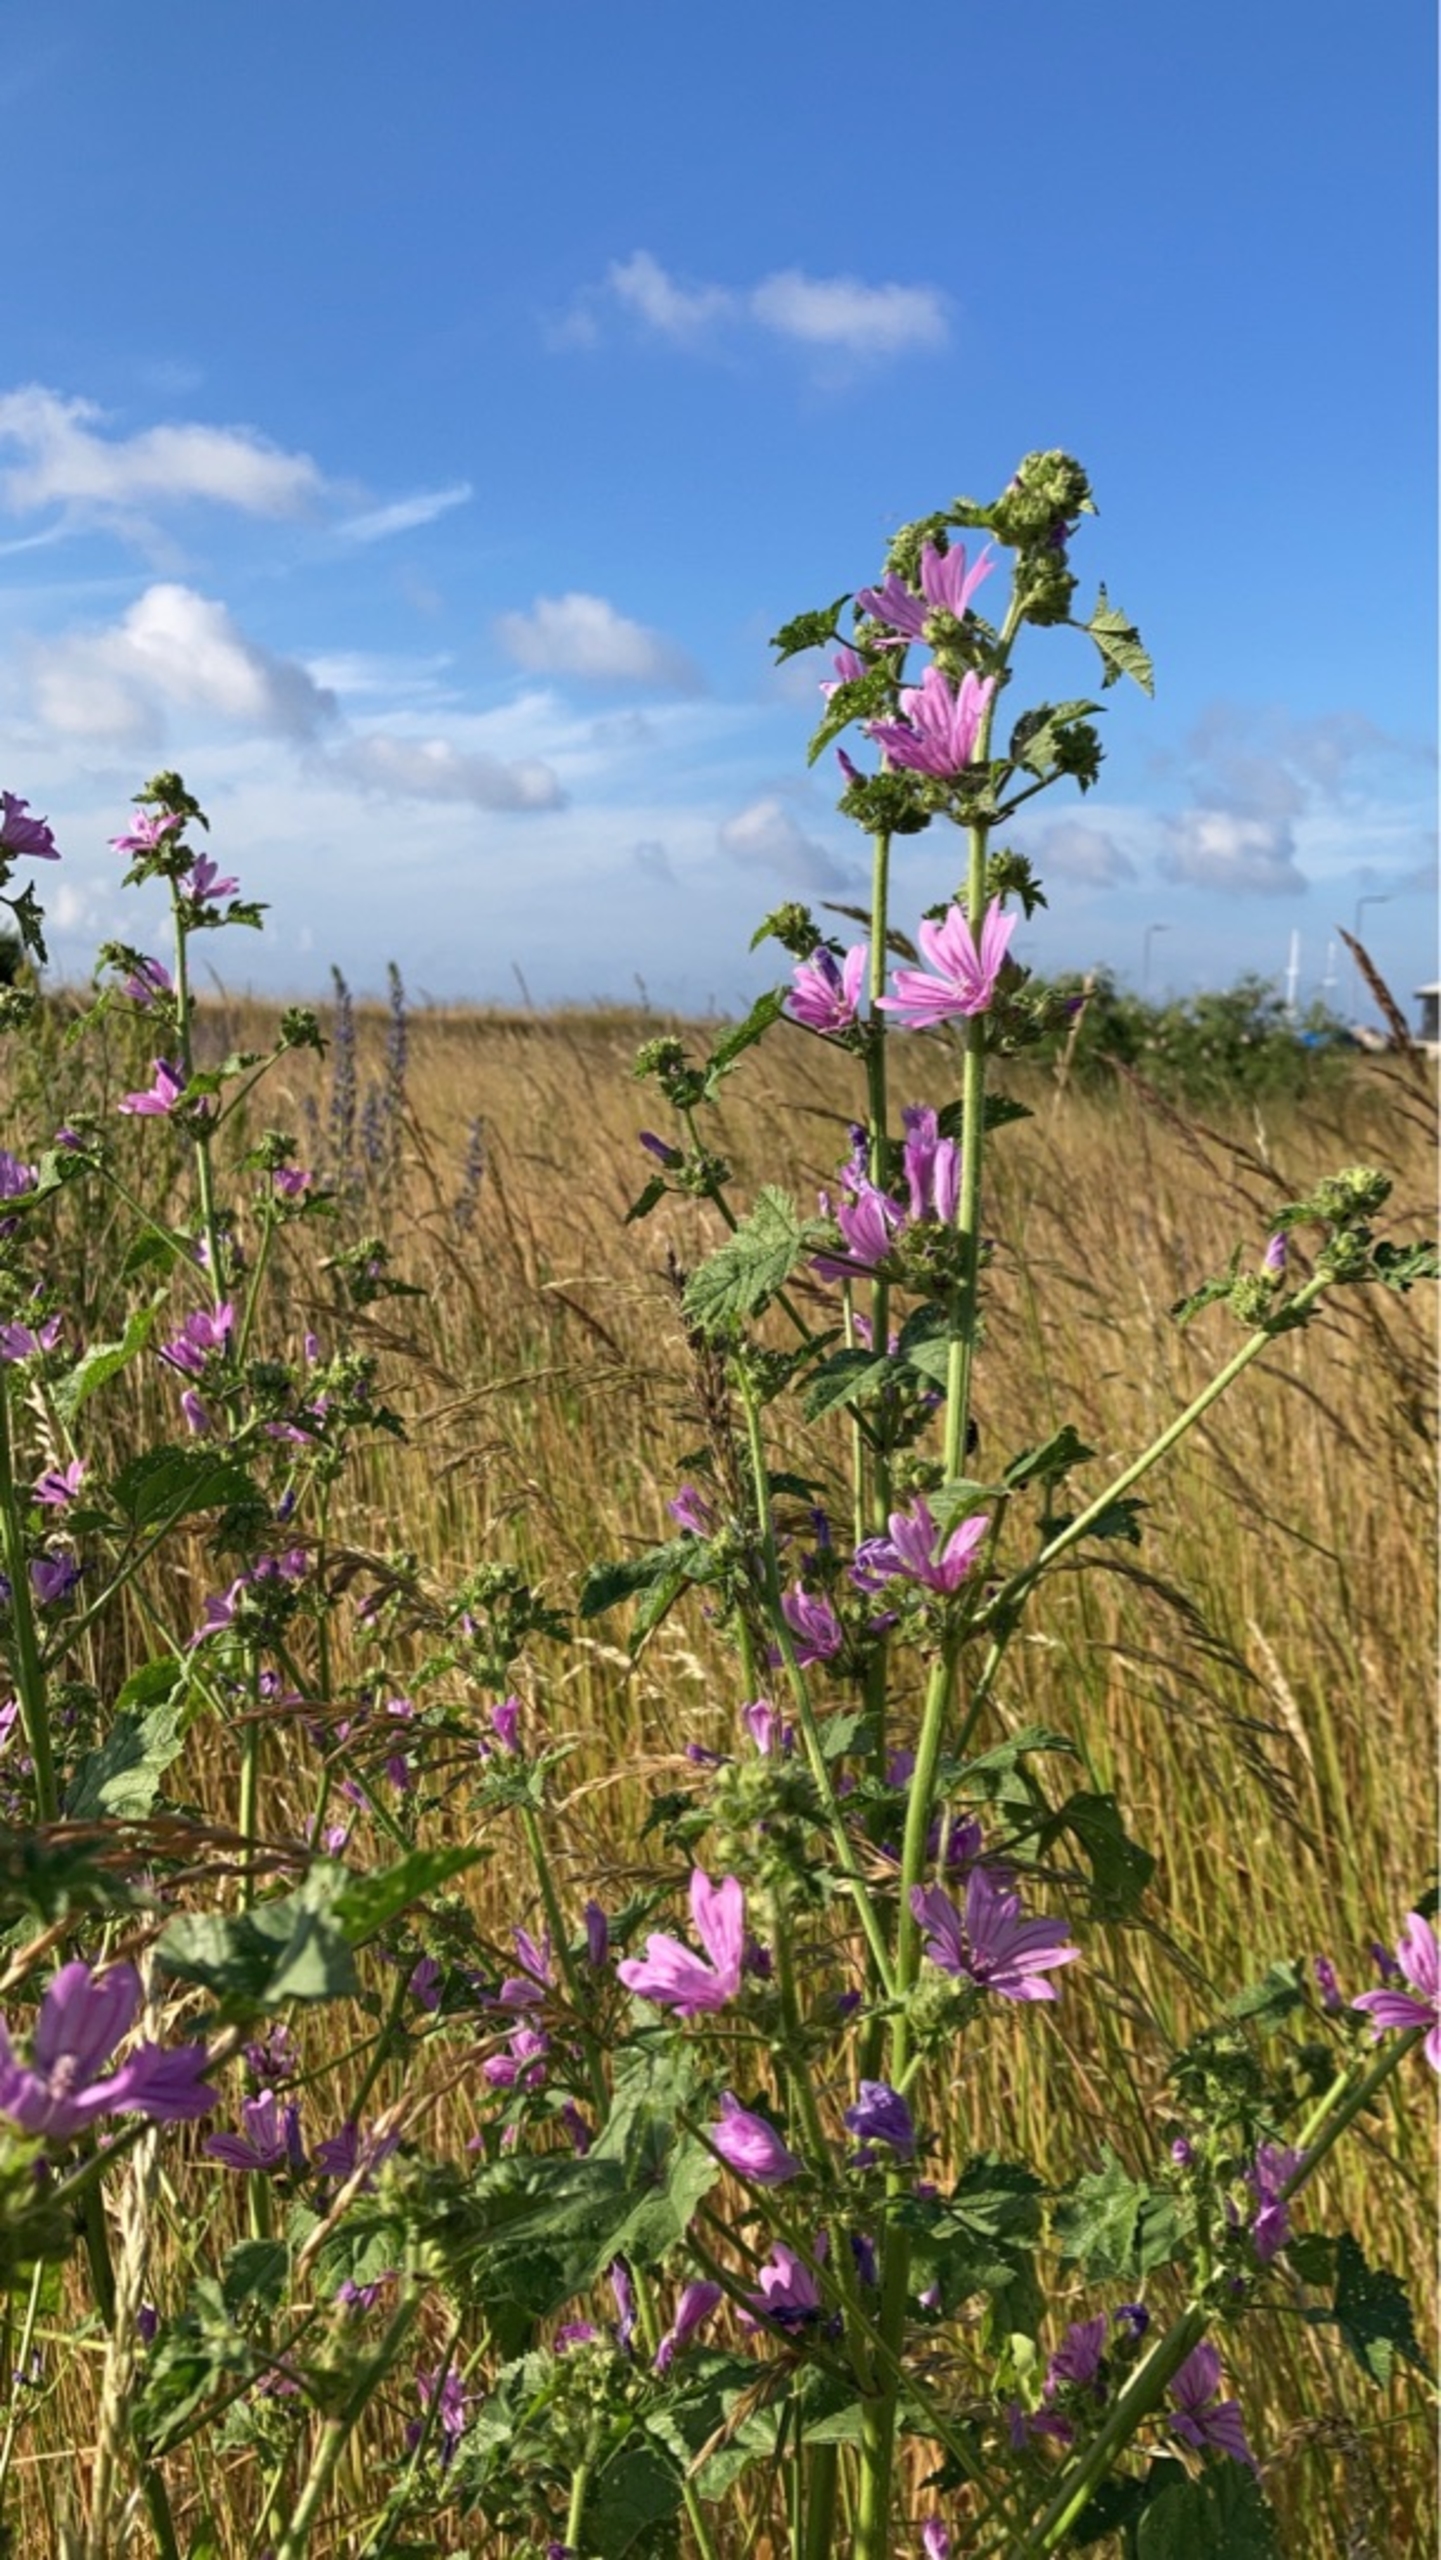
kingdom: Plantae
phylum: Tracheophyta
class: Magnoliopsida
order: Malvales
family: Malvaceae
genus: Malva
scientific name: Malva sylvestris
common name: Almindelig katost
